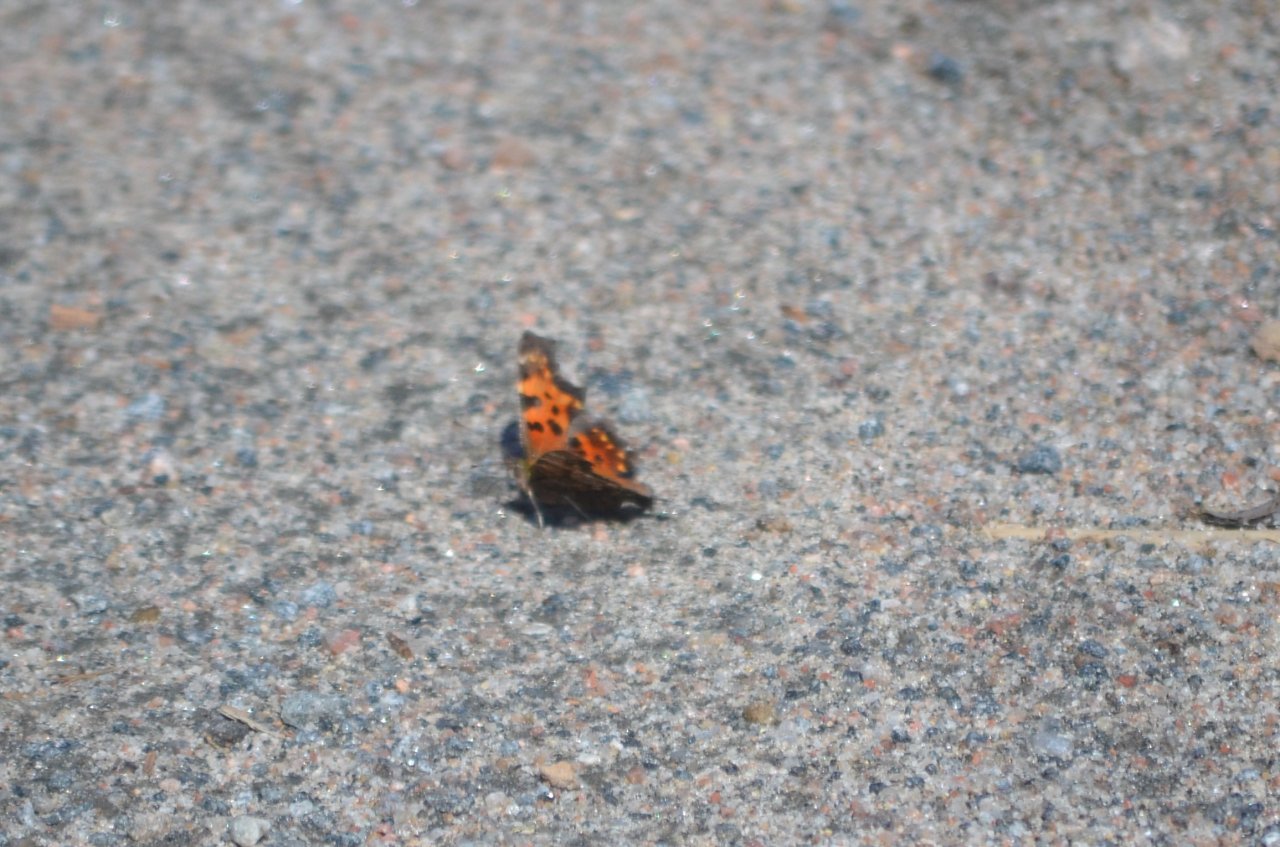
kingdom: Animalia
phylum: Arthropoda
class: Insecta
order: Lepidoptera
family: Nymphalidae
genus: Polygonia
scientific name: Polygonia faunus
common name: Green Comma
